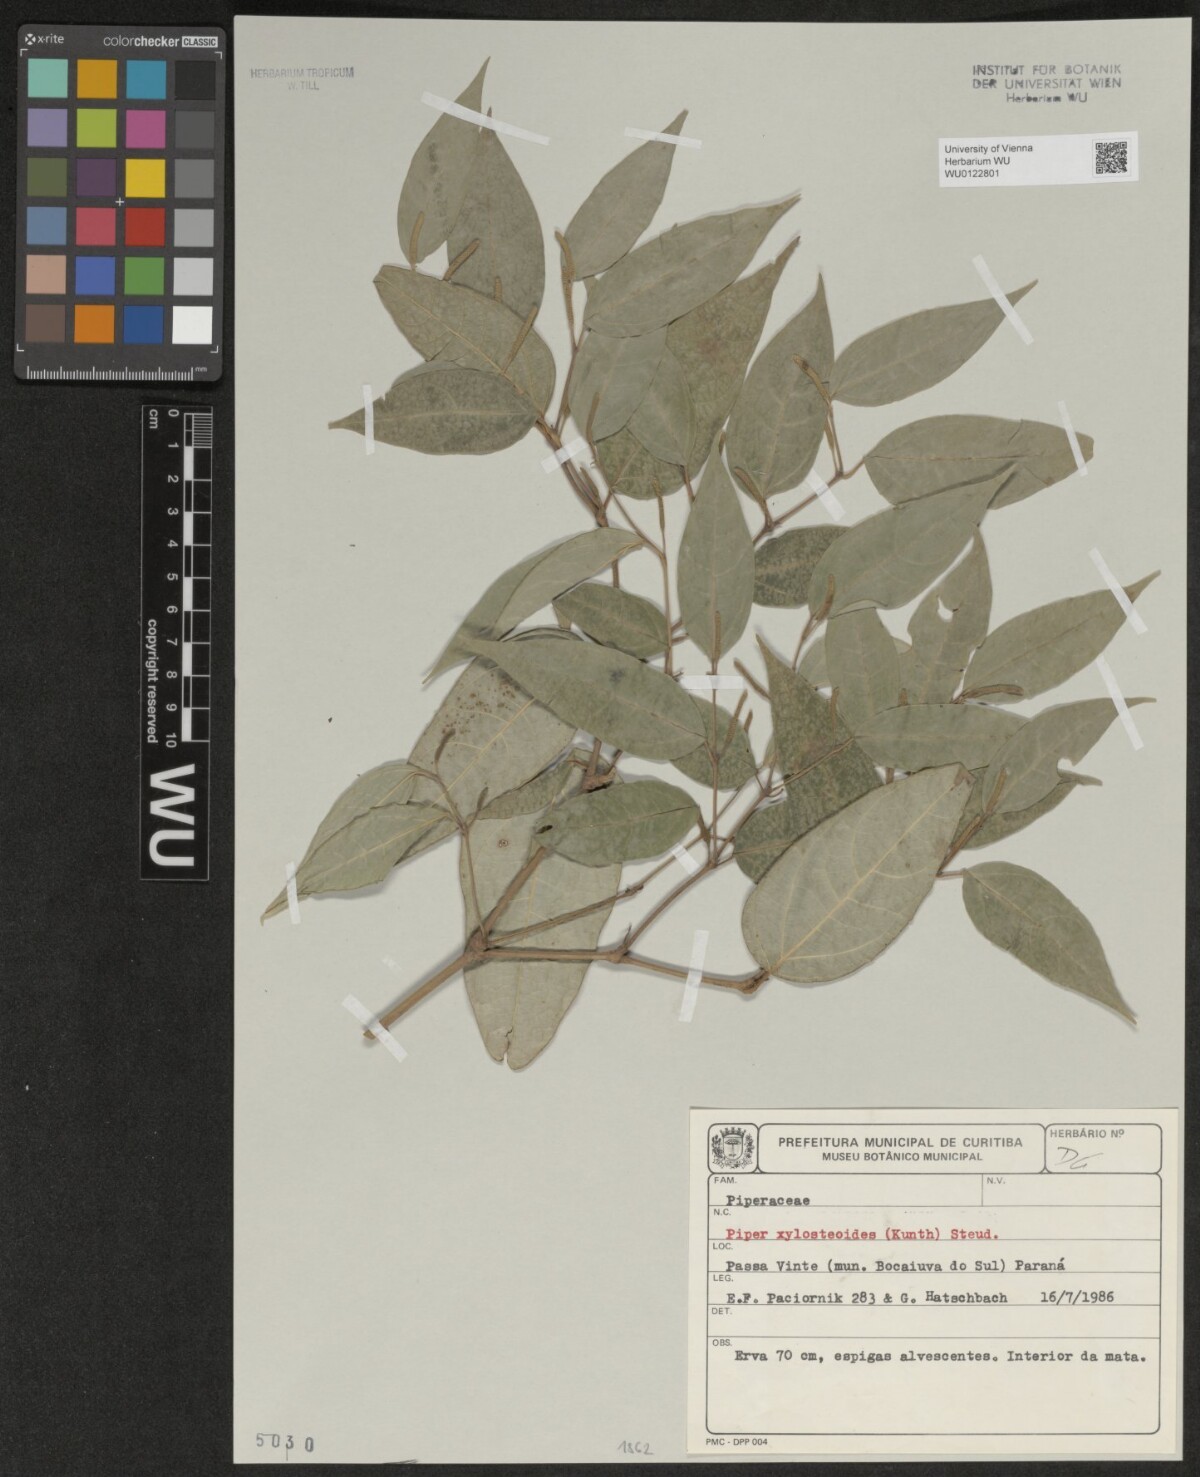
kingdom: Plantae
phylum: Tracheophyta
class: Magnoliopsida
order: Piperales
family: Piperaceae
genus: Piper
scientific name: Piper xylosteoides
